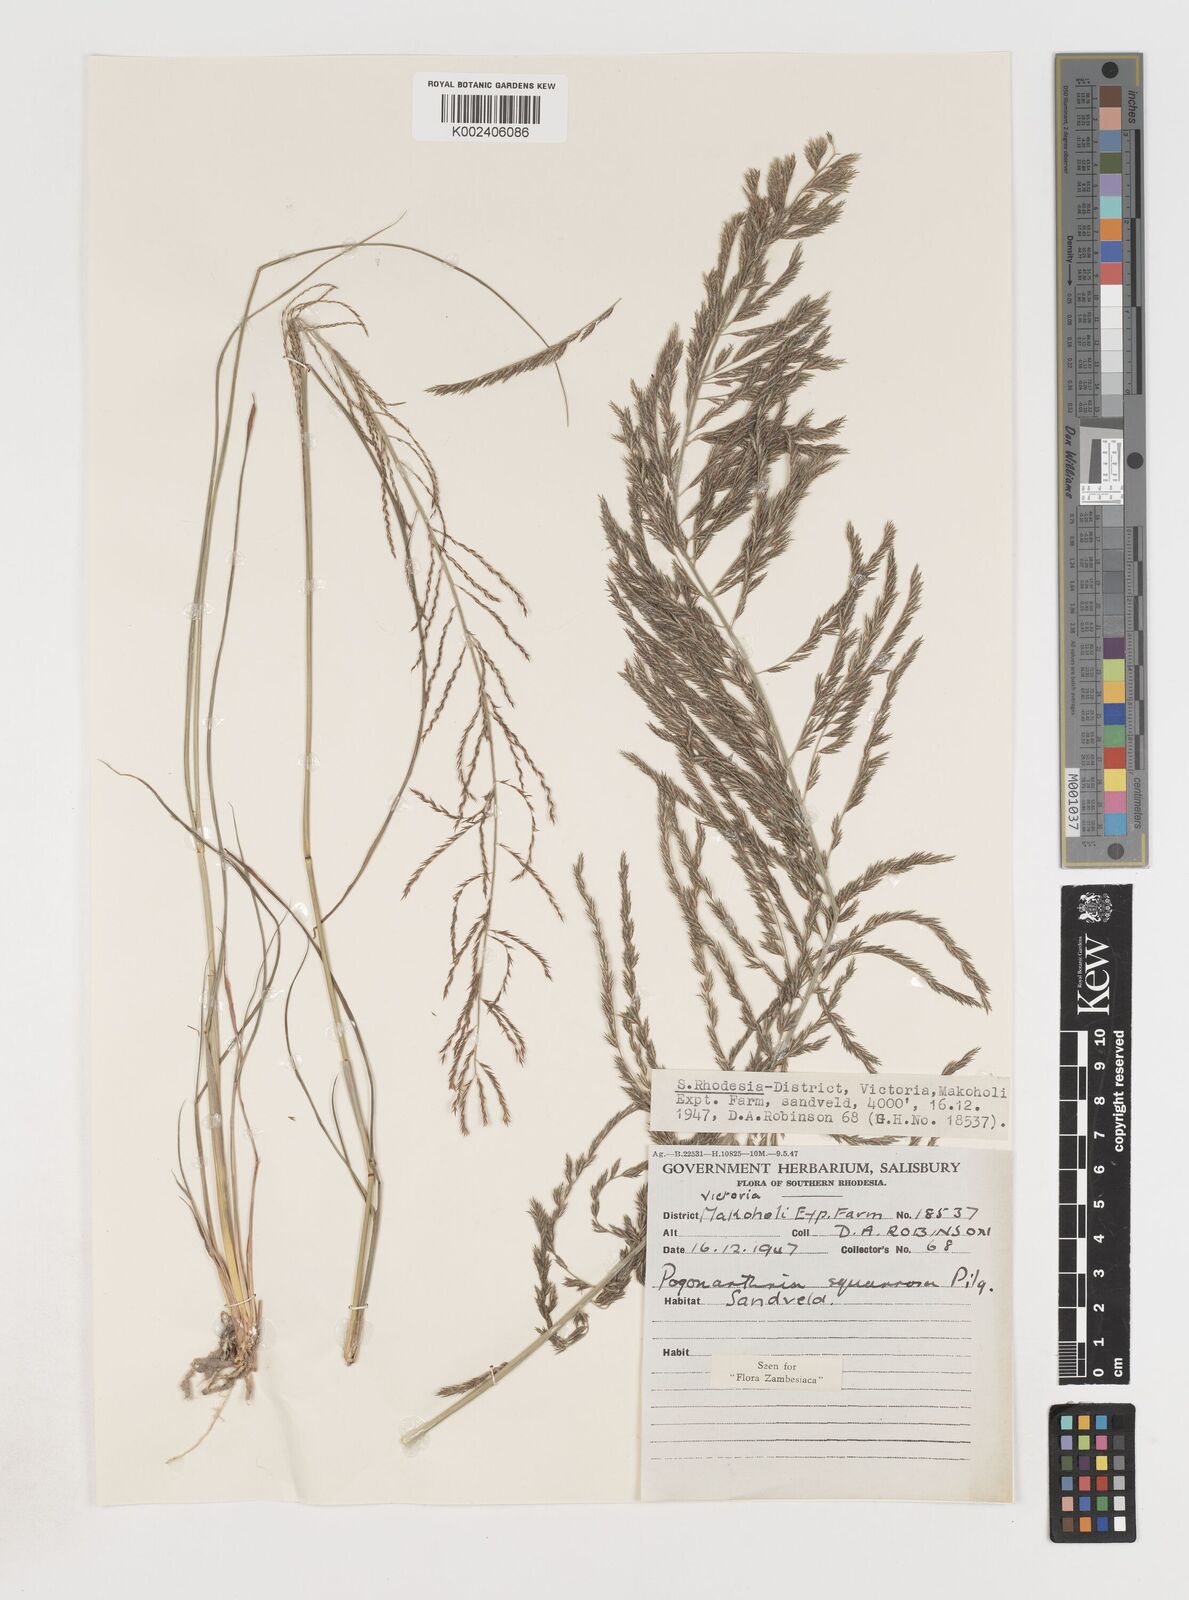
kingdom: Plantae
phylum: Tracheophyta
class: Liliopsida
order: Poales
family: Poaceae
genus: Pogonarthria
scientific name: Pogonarthria squarrosa
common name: Grass
